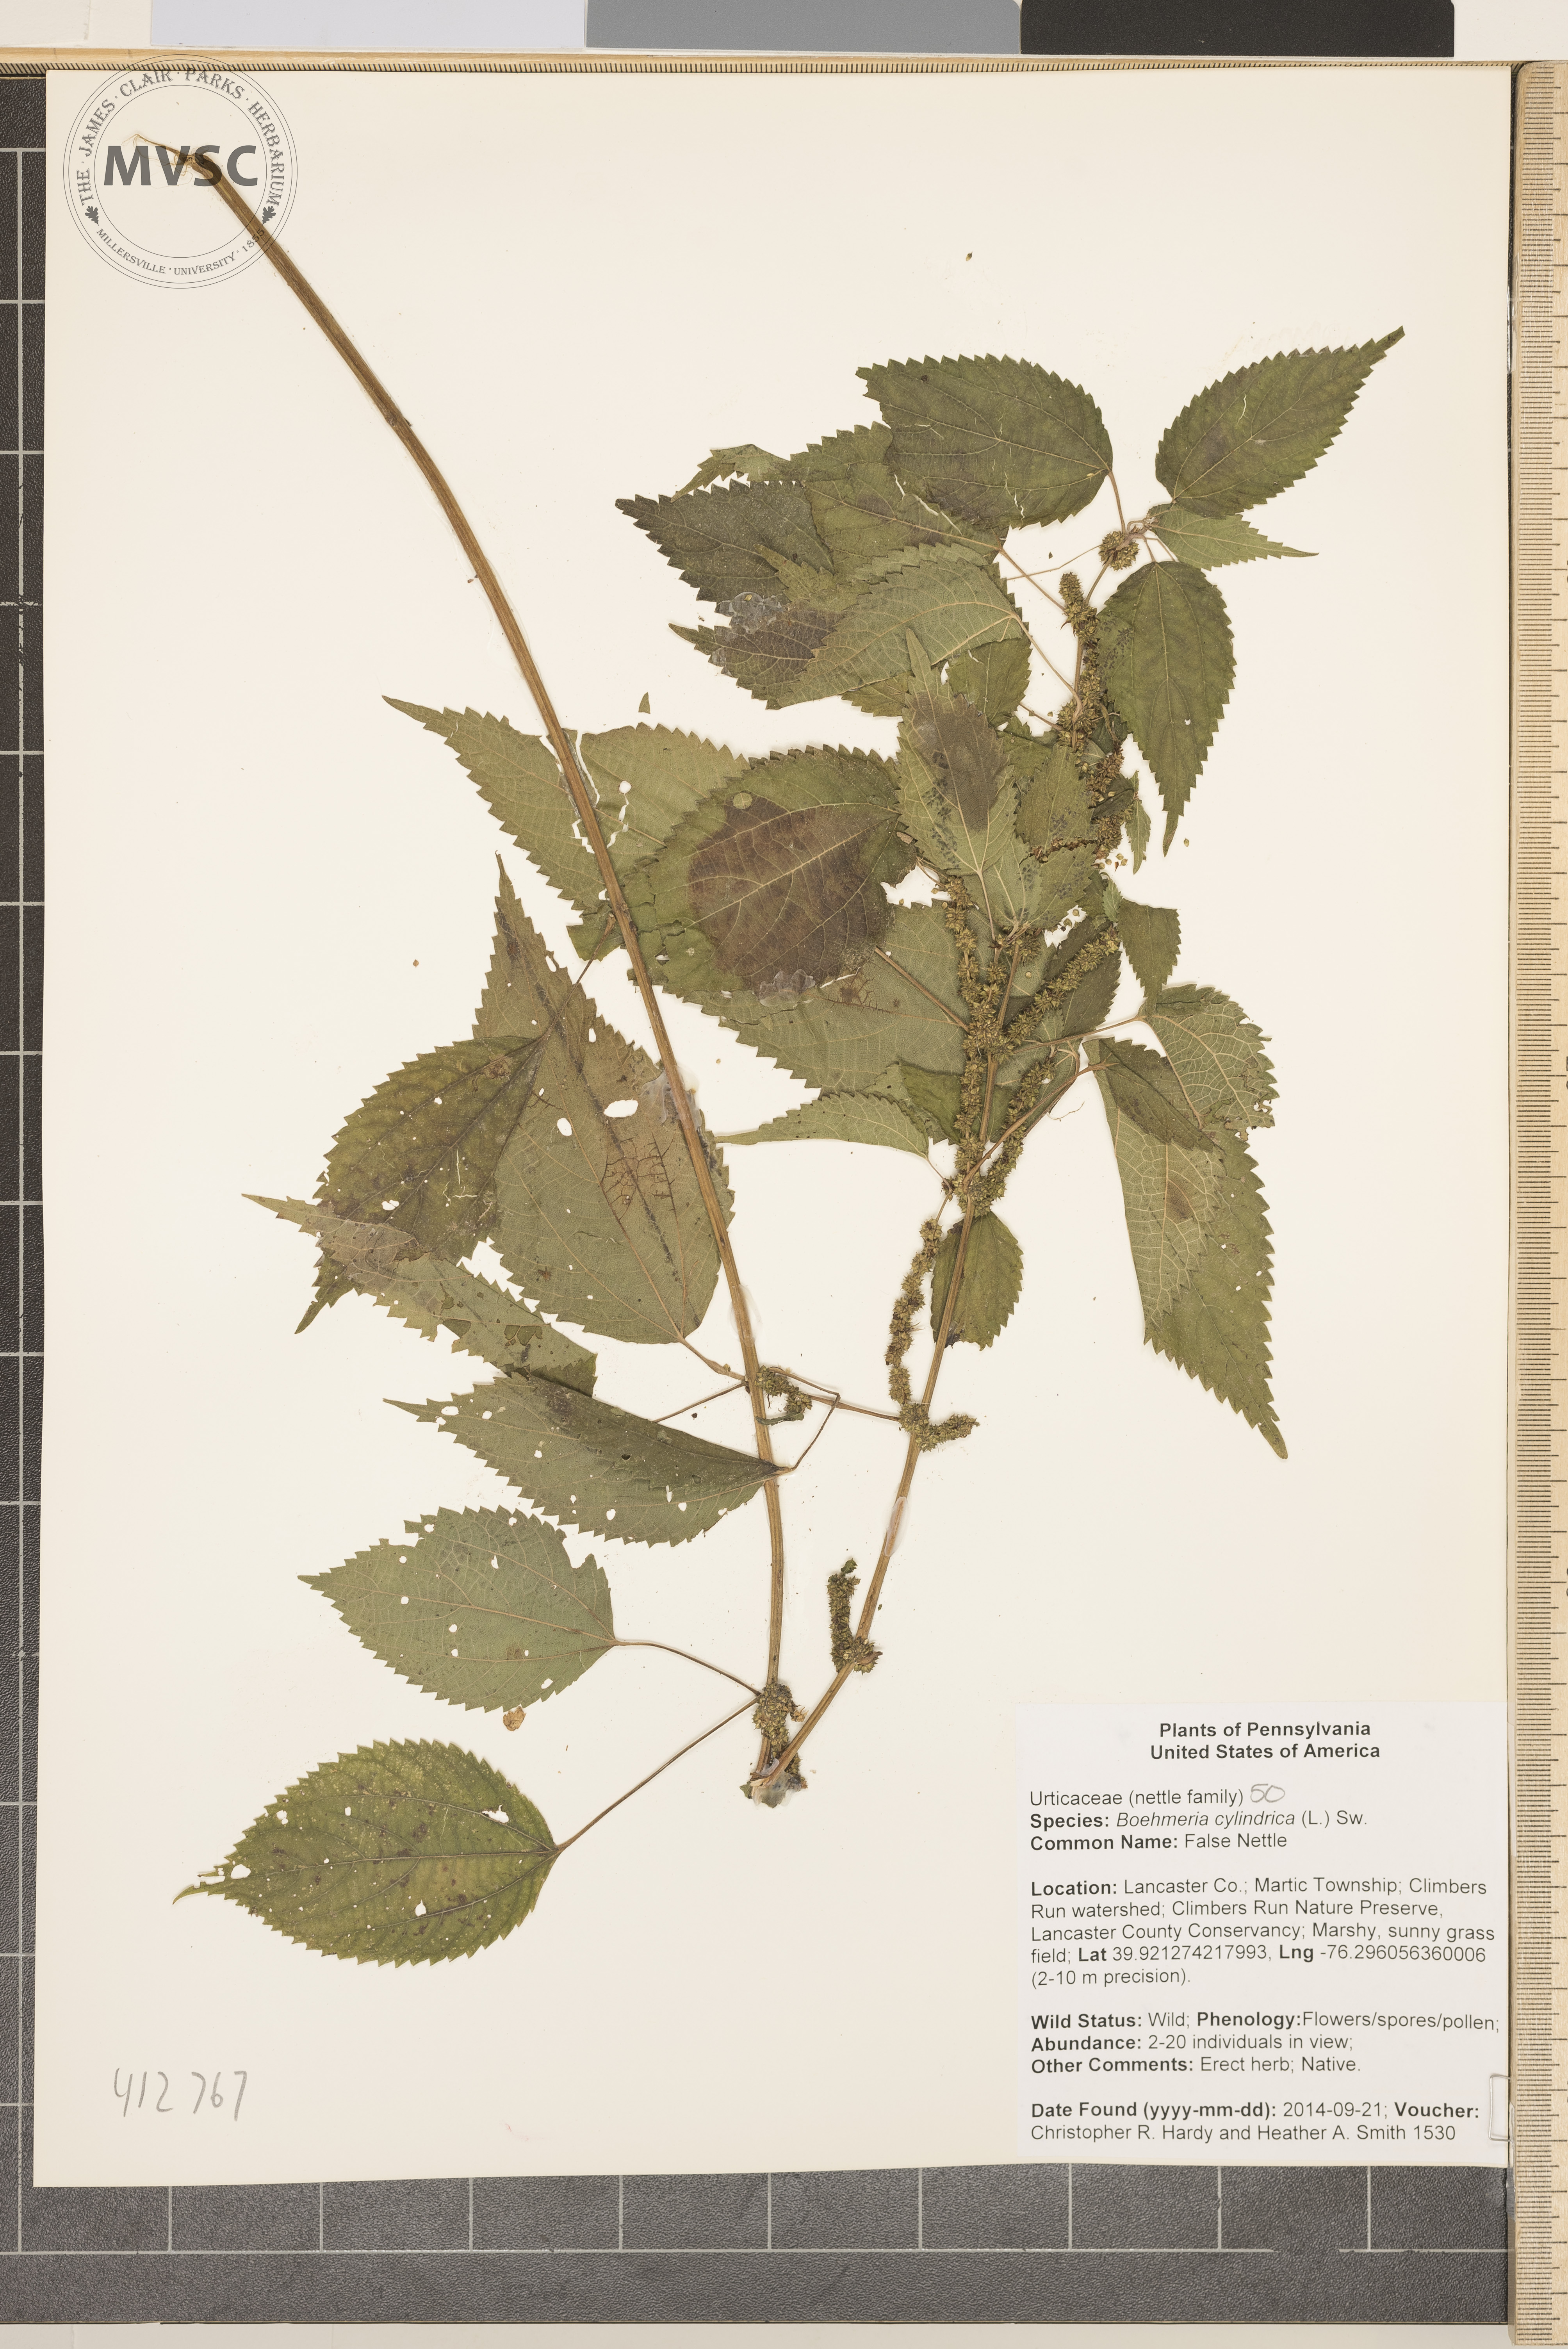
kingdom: Plantae
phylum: Tracheophyta
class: Magnoliopsida
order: Rosales
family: Urticaceae
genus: Boehmeria
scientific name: Boehmeria cylindrica
